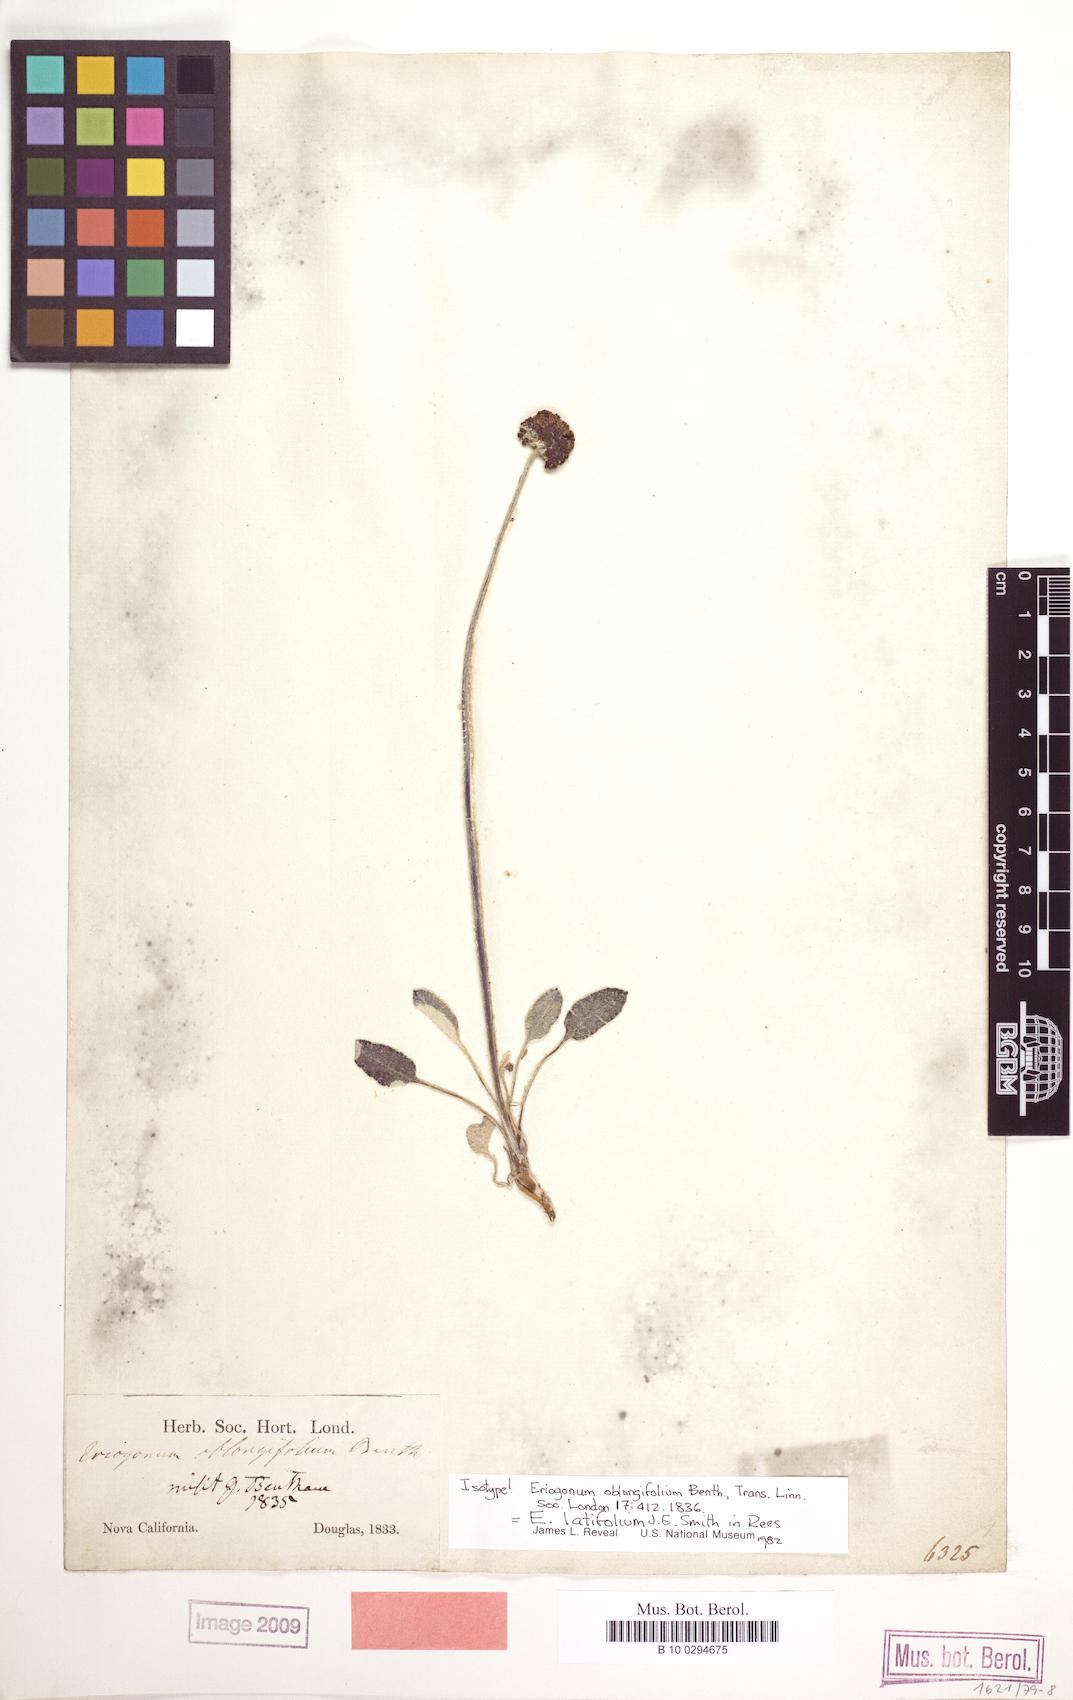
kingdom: Plantae
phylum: Tracheophyta
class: Magnoliopsida
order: Caryophyllales
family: Polygonaceae
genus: Eriogonum
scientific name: Eriogonum latifolium
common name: Seaside wild buckwheat
